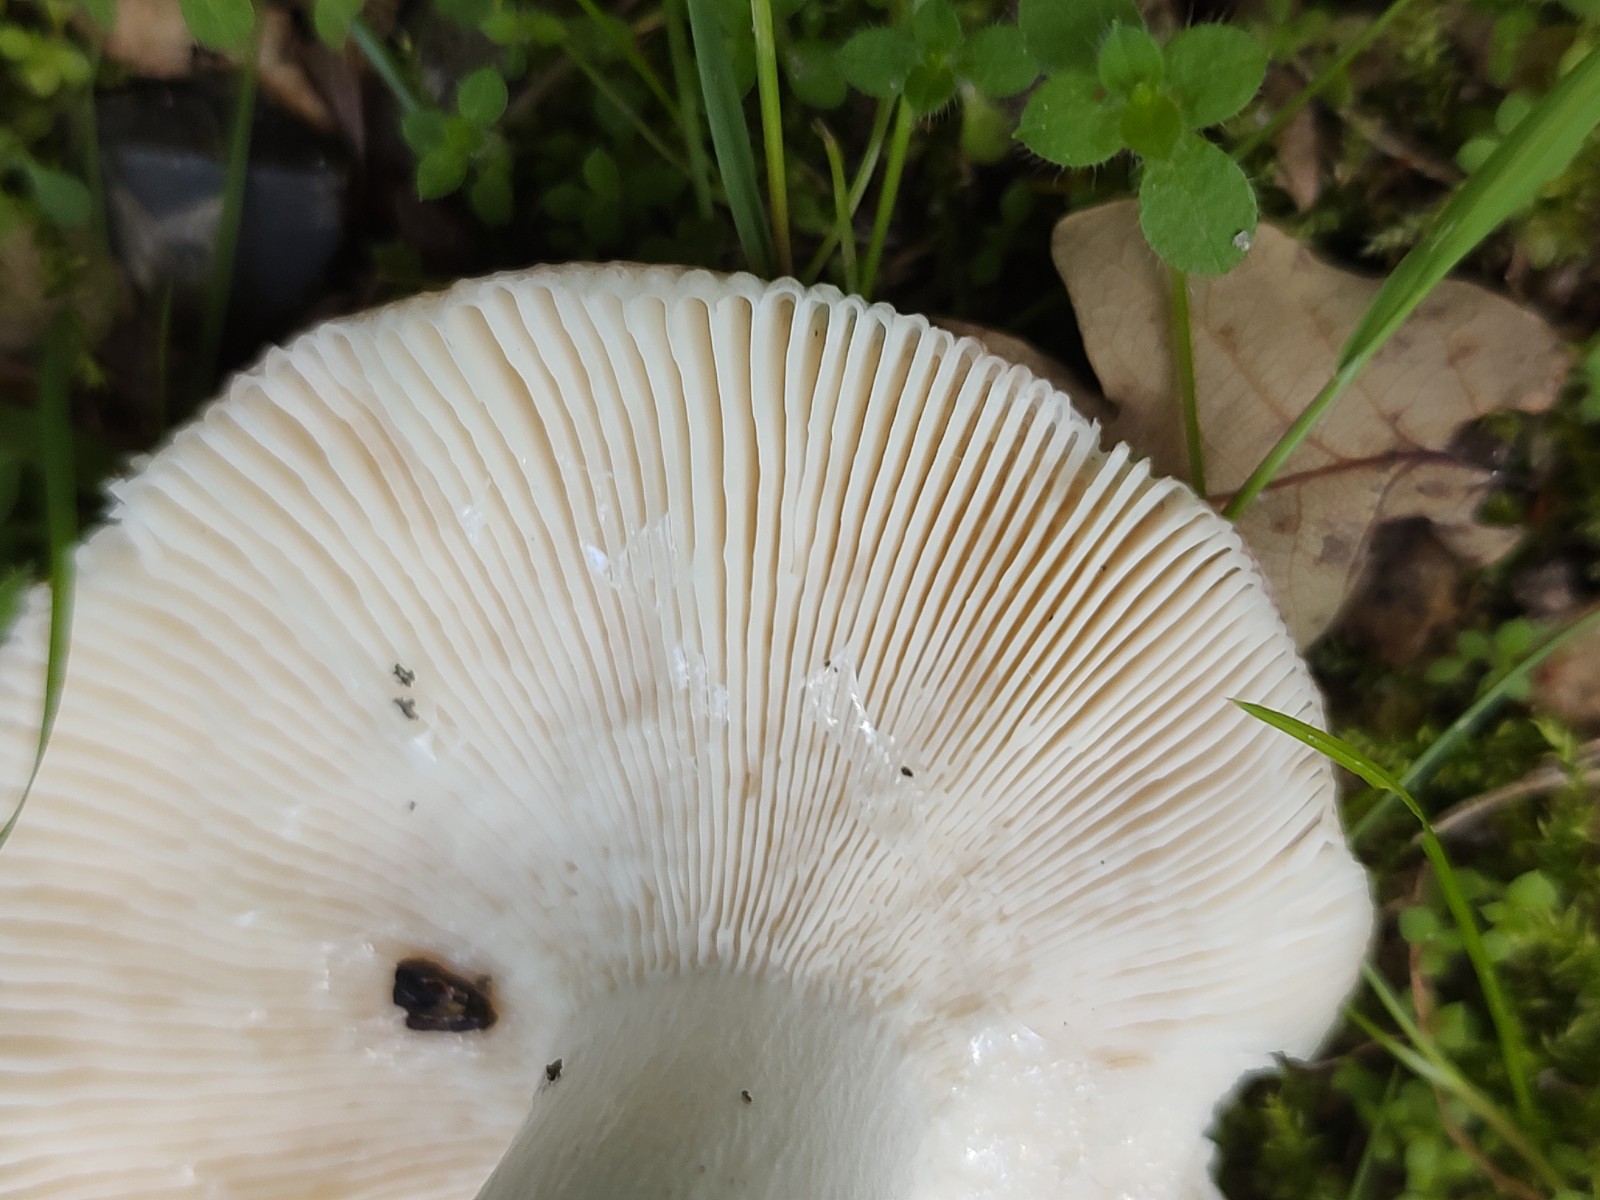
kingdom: Fungi
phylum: Basidiomycota
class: Agaricomycetes
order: Russulales
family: Russulaceae
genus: Russula
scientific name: Russula vesca
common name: spiselig skørhat
